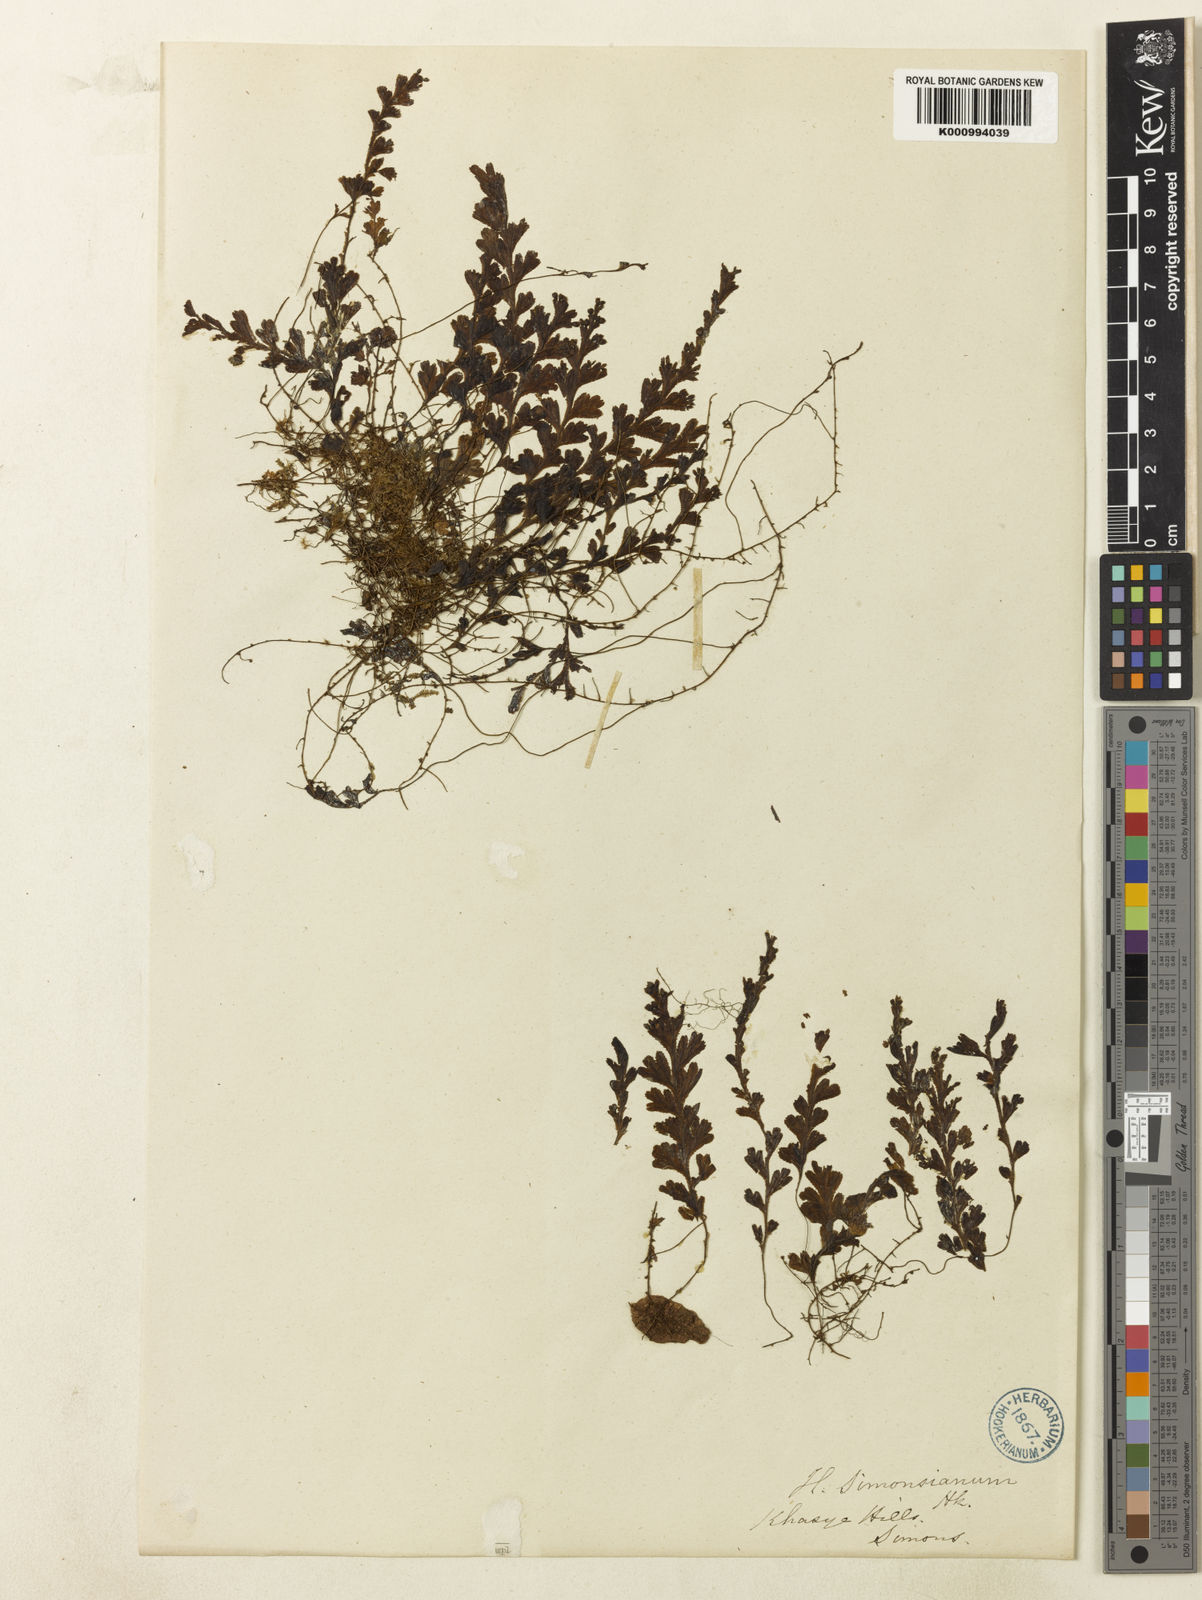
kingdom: Plantae
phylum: Tracheophyta
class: Polypodiopsida
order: Hymenophyllales
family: Hymenophyllaceae
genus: Hymenophyllum
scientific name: Hymenophyllum simonsianum
